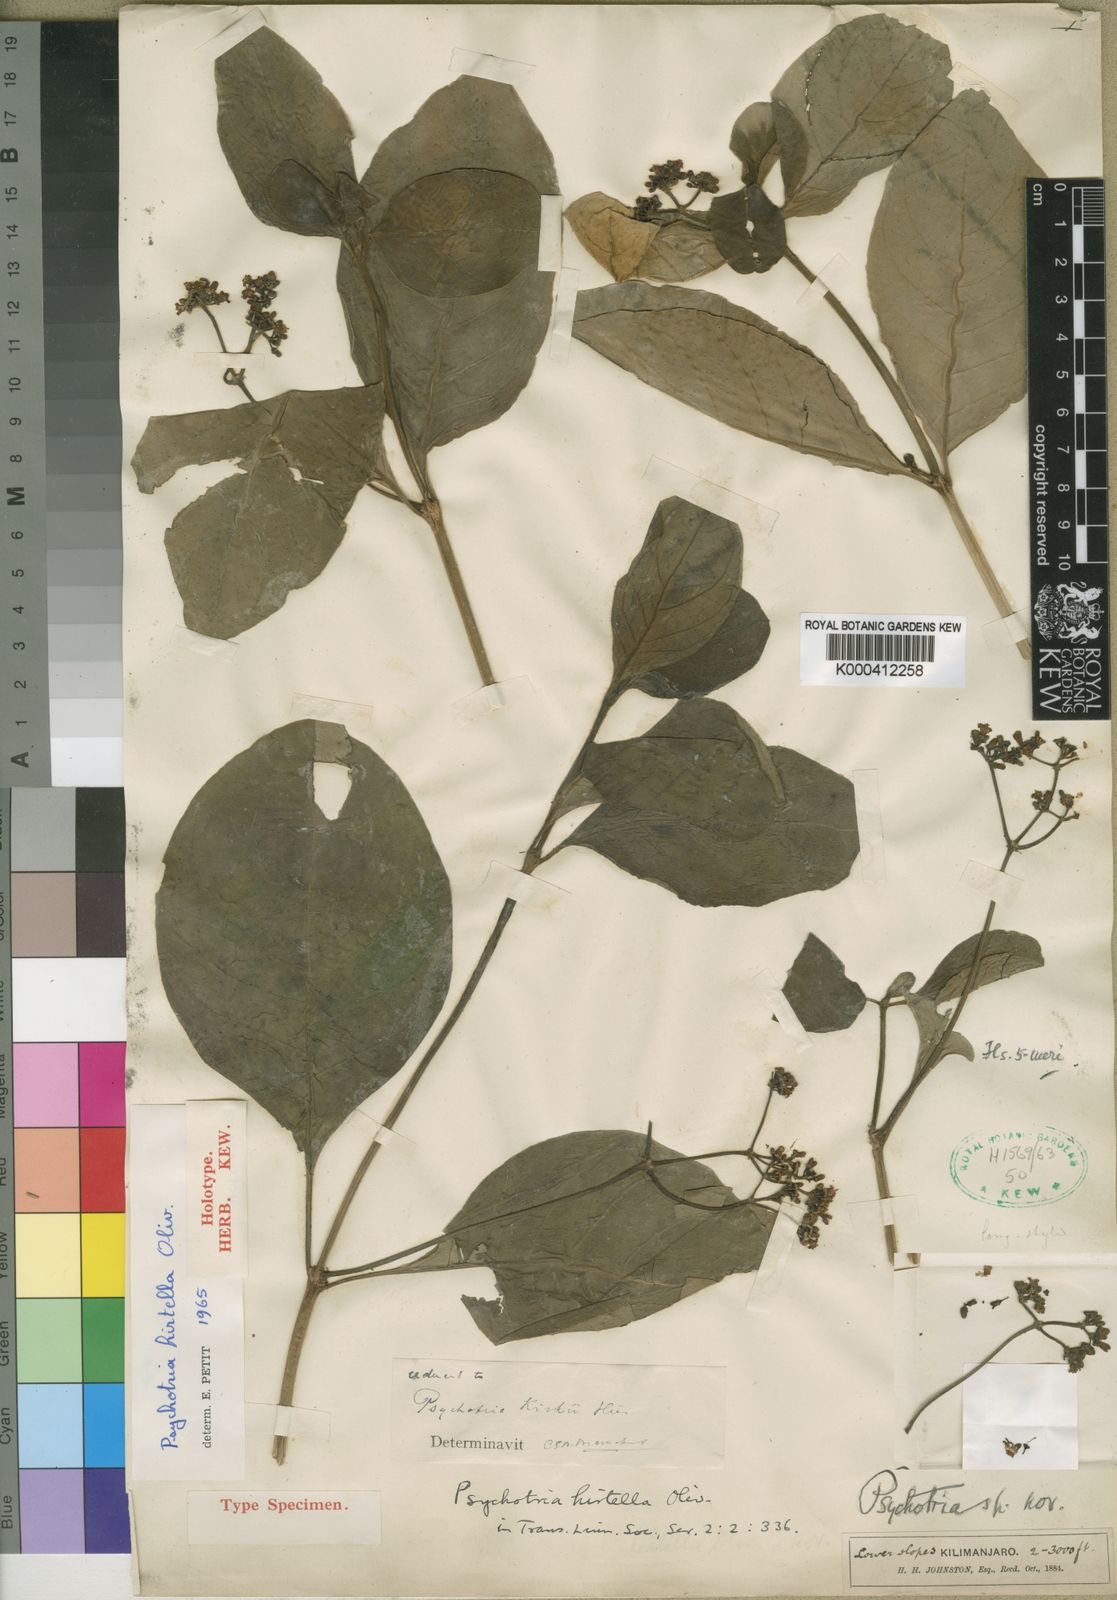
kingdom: Plantae
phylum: Tracheophyta
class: Magnoliopsida
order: Gentianales
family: Rubiaceae
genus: Psychotria
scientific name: Psychotria punctata
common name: Dotted wild coffee
